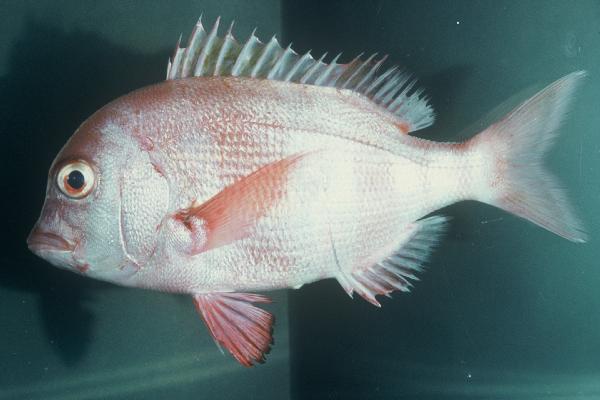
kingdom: Animalia
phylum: Chordata
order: Perciformes
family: Sparidae
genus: Chrysoblephus
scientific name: Chrysoblephus gibbiceps
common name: Red stumpnose
